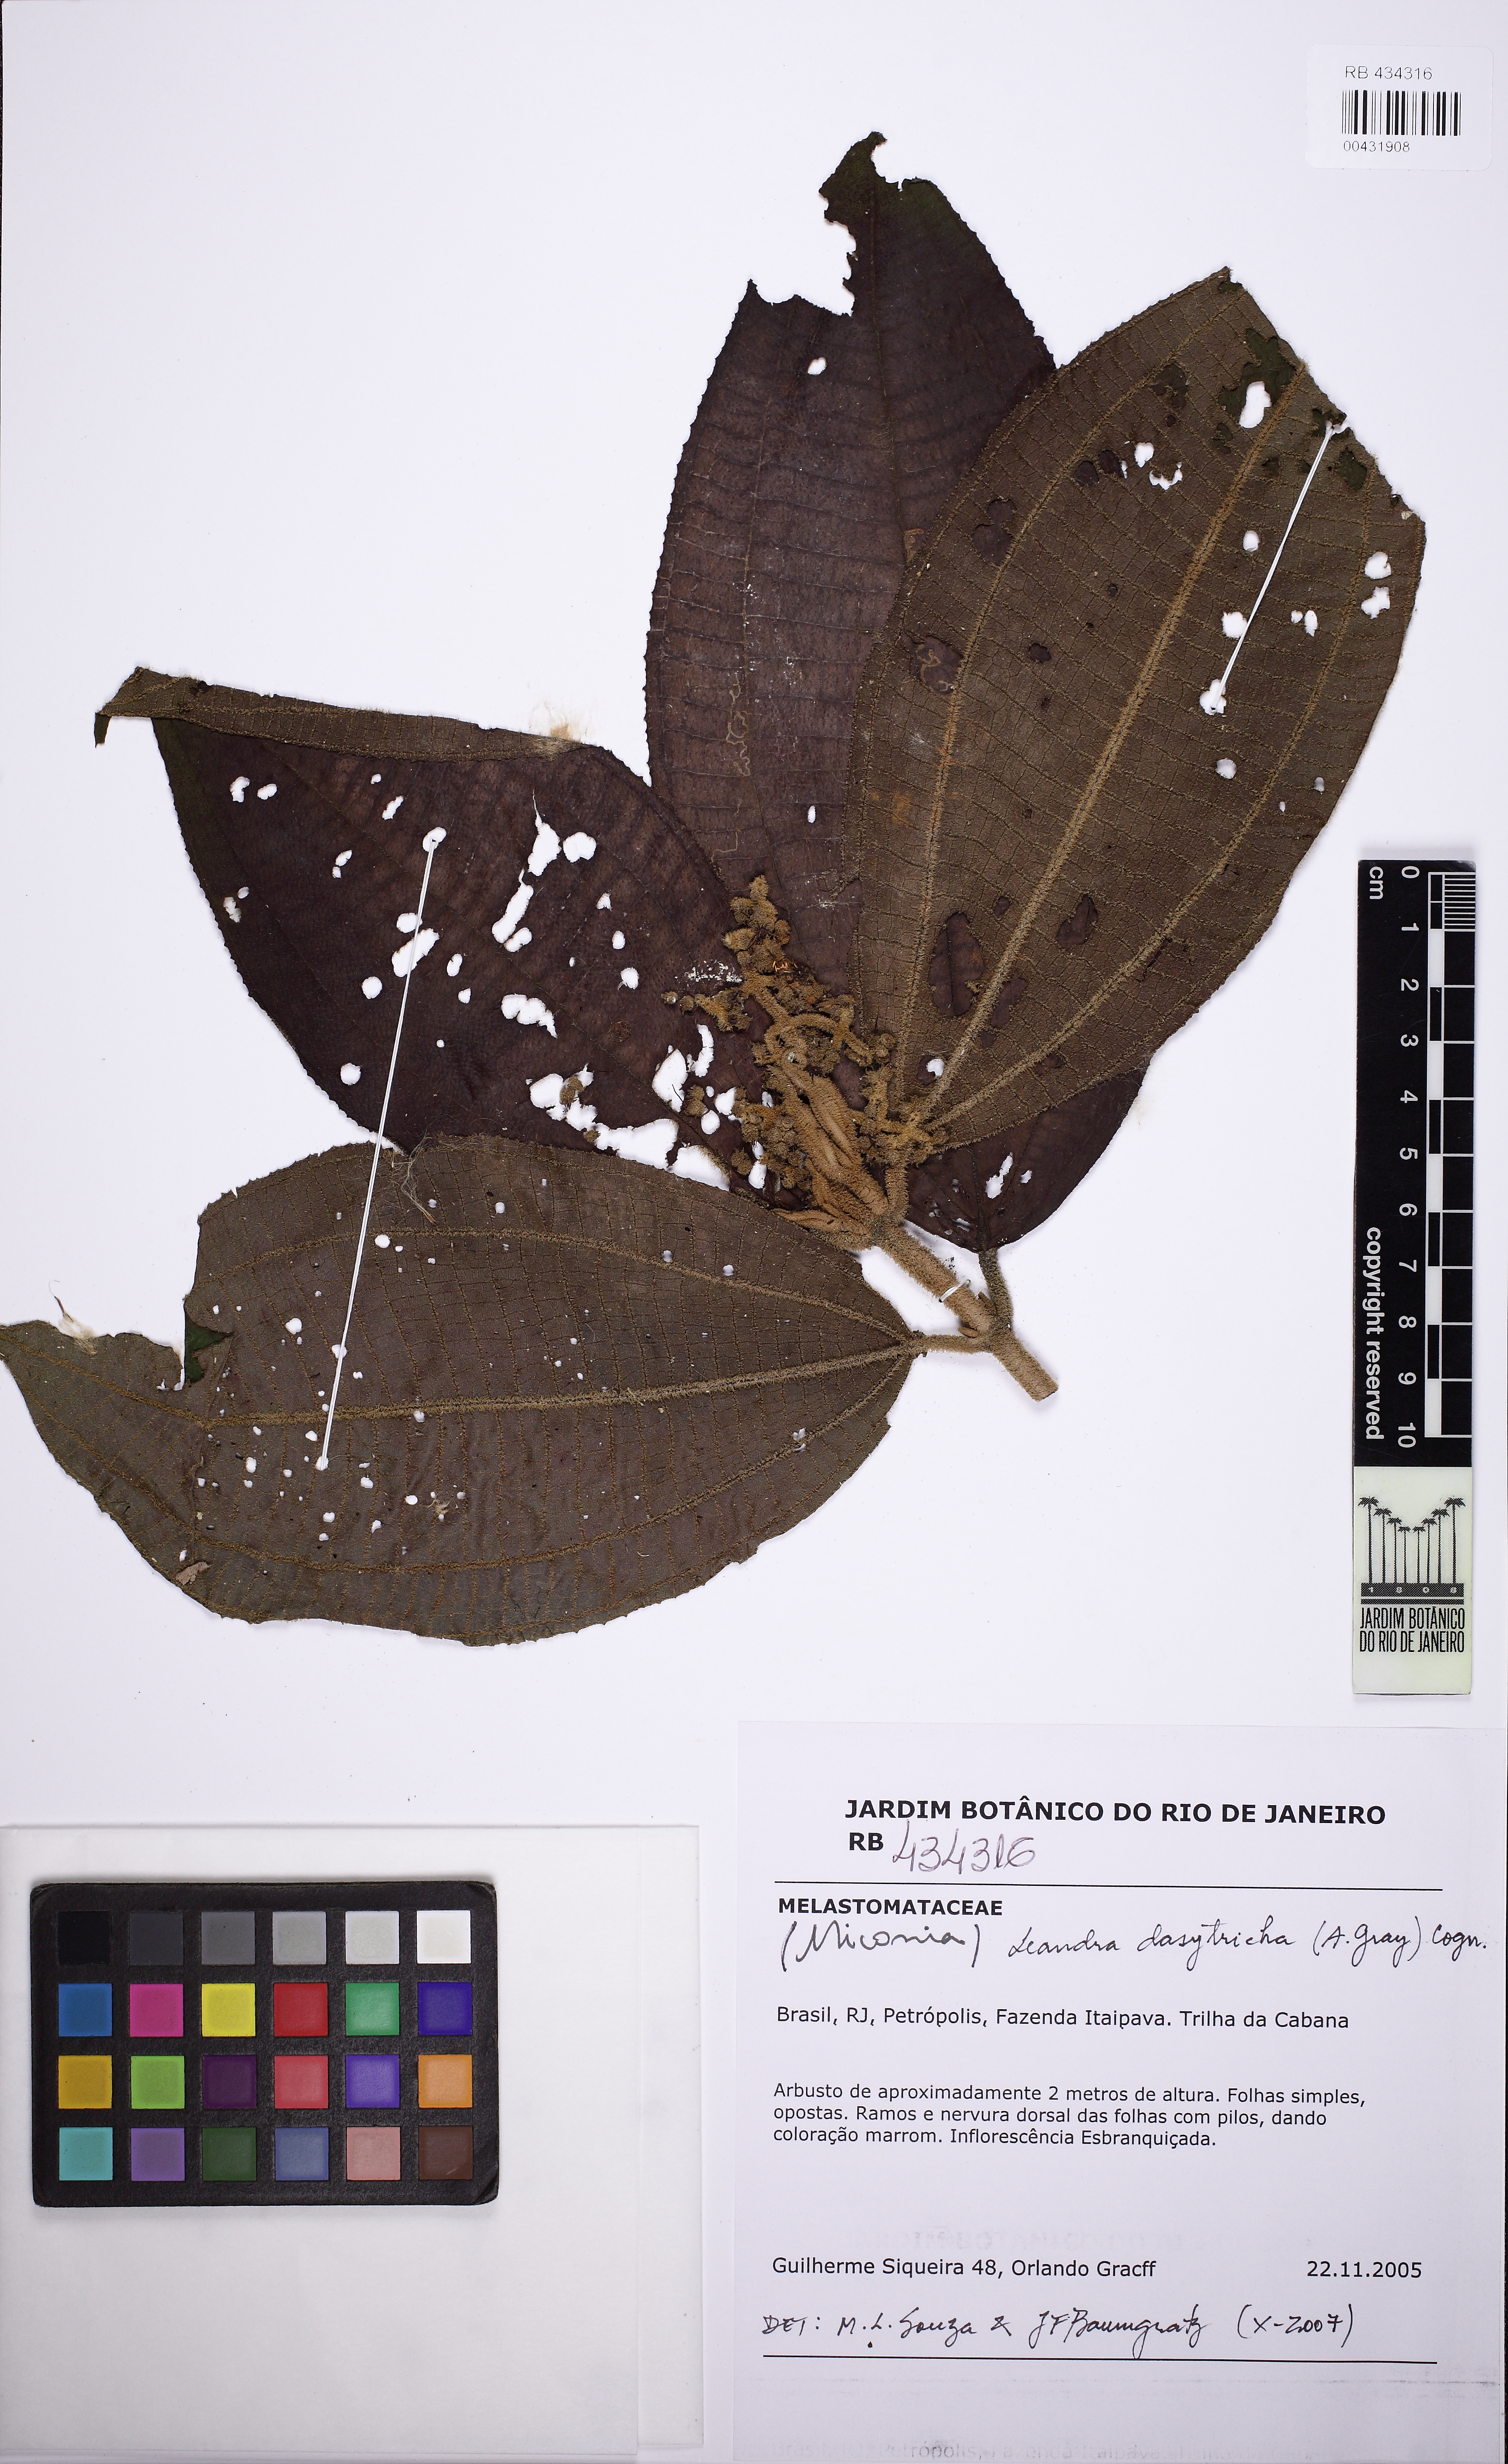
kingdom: Plantae
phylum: Tracheophyta
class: Magnoliopsida
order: Myrtales
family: Melastomataceae
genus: Miconia
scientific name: Miconia dasytricha
